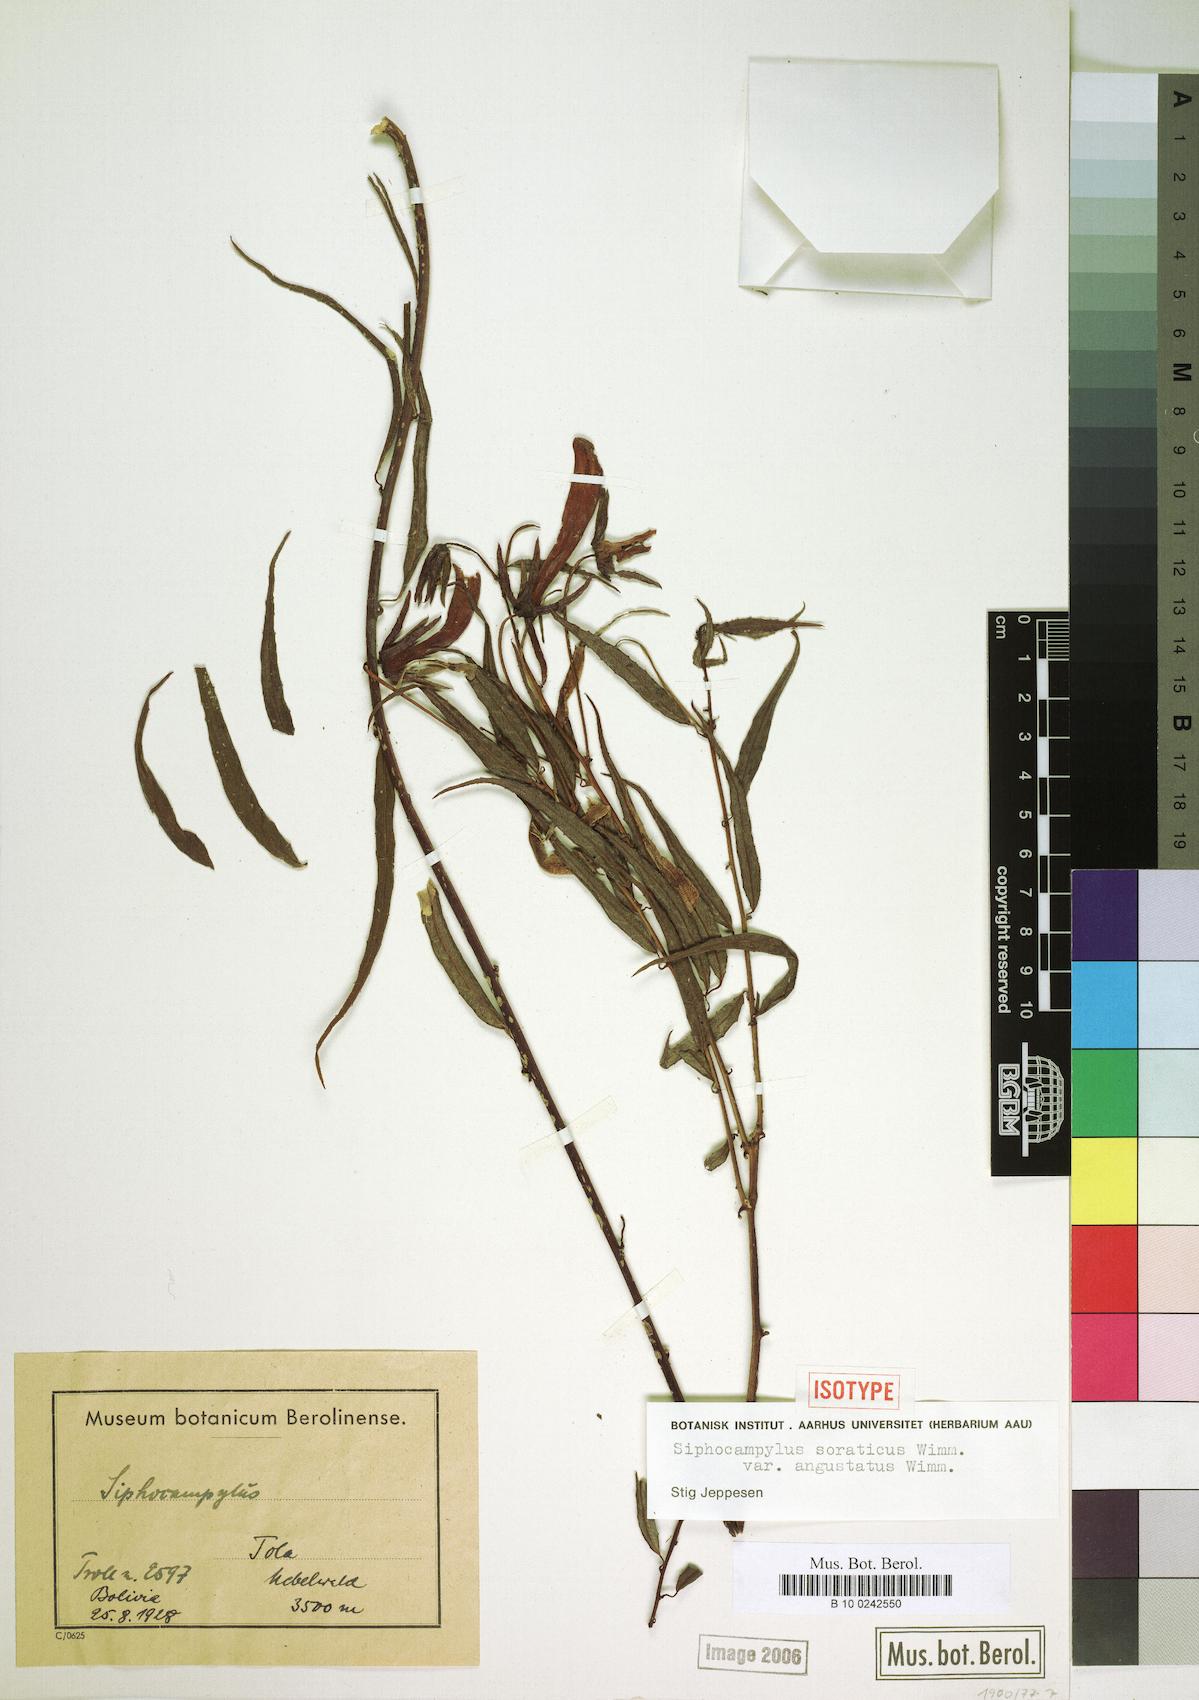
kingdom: Plantae
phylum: Tracheophyta
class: Magnoliopsida
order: Asterales
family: Campanulaceae
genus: Siphocampylus
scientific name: Siphocampylus soraticus
